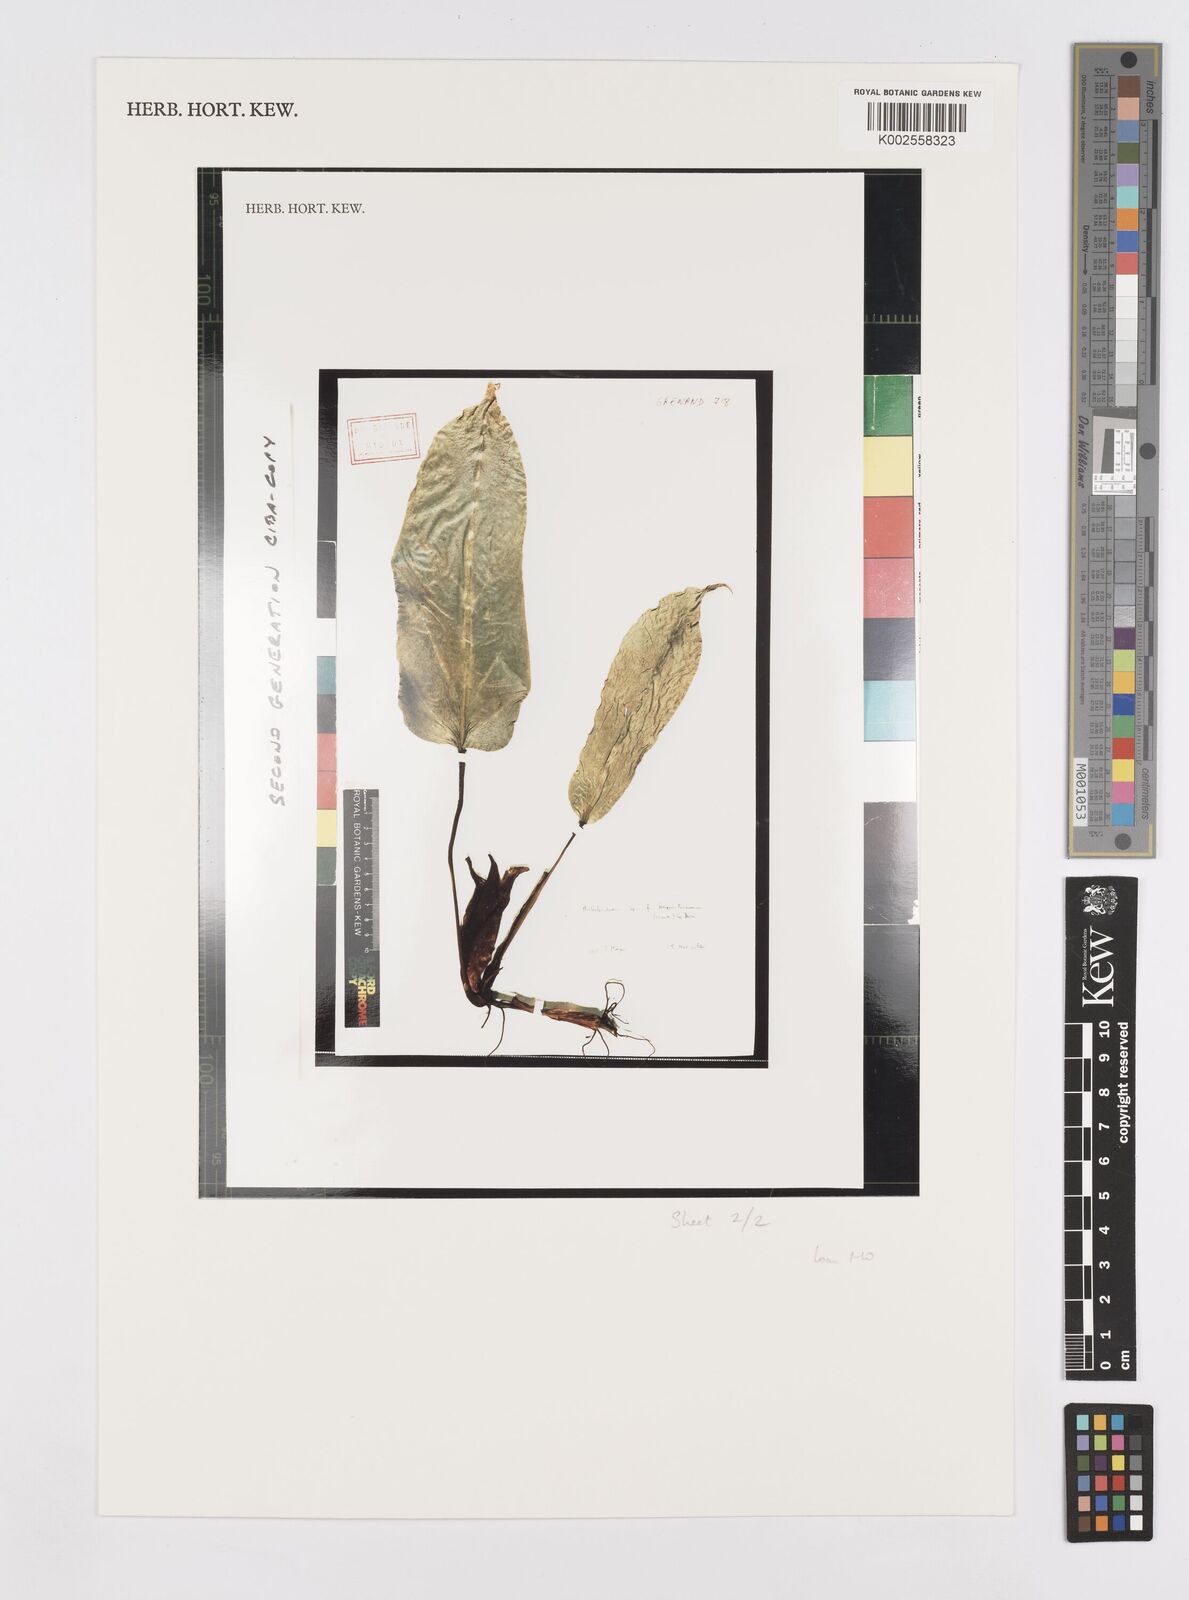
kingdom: Plantae
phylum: Tracheophyta
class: Liliopsida
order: Alismatales
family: Araceae
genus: Philodendron
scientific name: Philodendron splitgerberi
